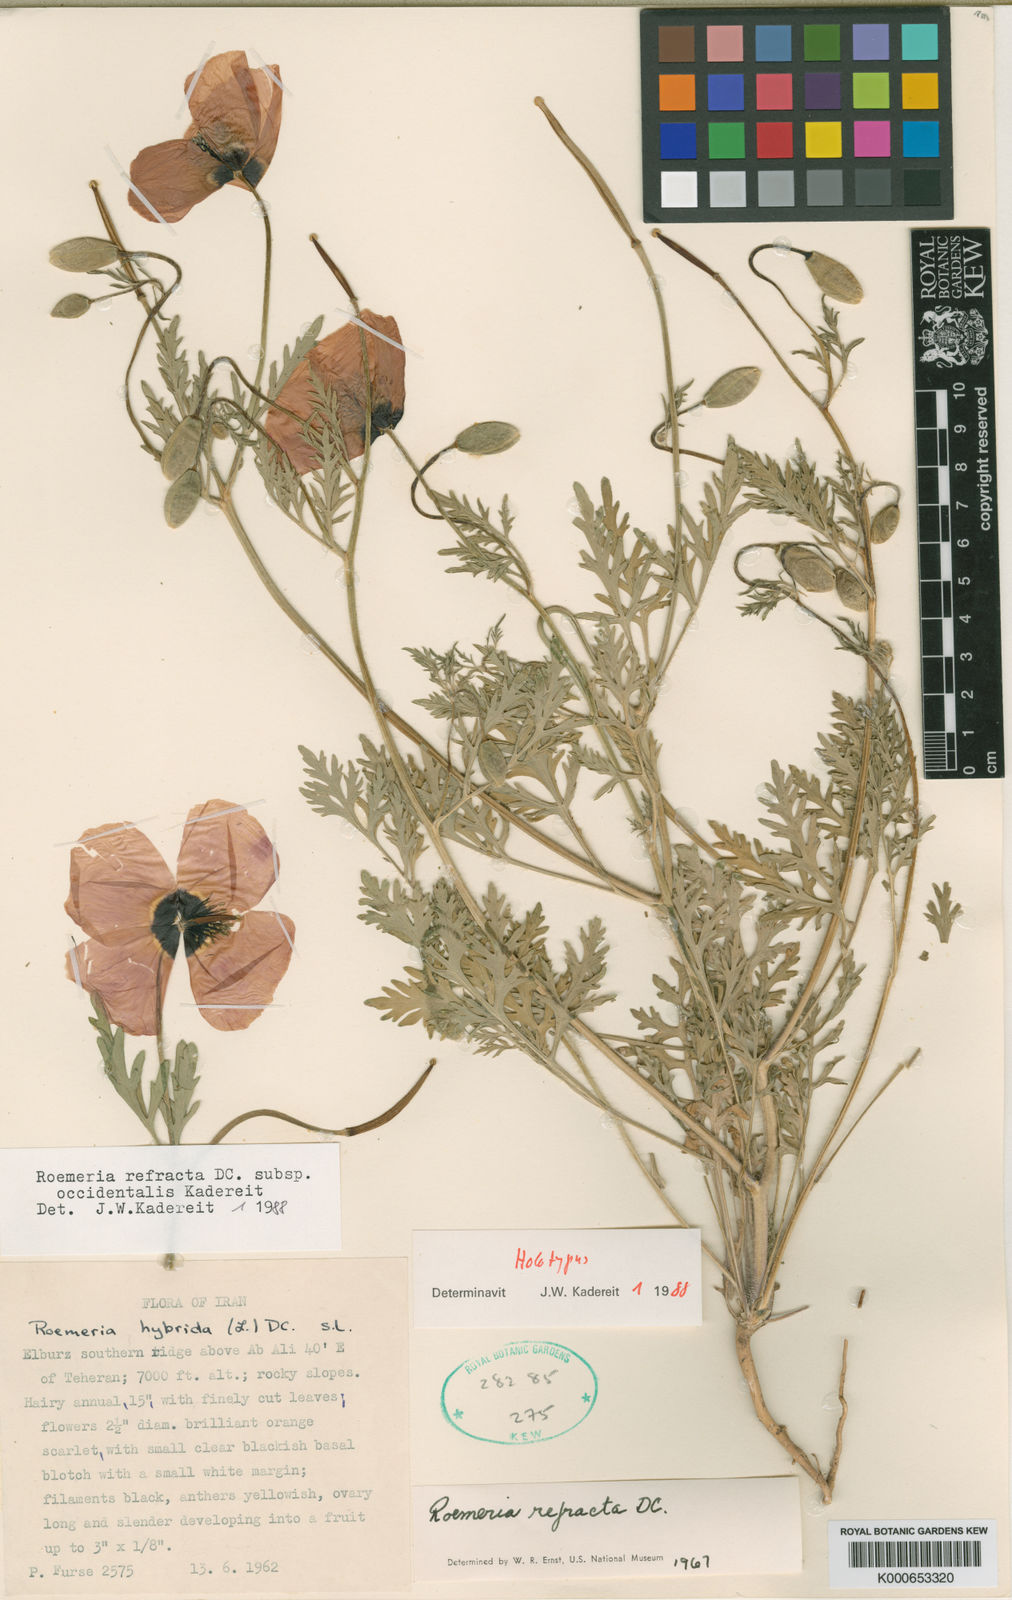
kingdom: Plantae
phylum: Tracheophyta
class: Magnoliopsida
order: Ranunculales
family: Papaveraceae
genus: Roemeria
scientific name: Roemeria refracta
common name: Spotted asian poppy
